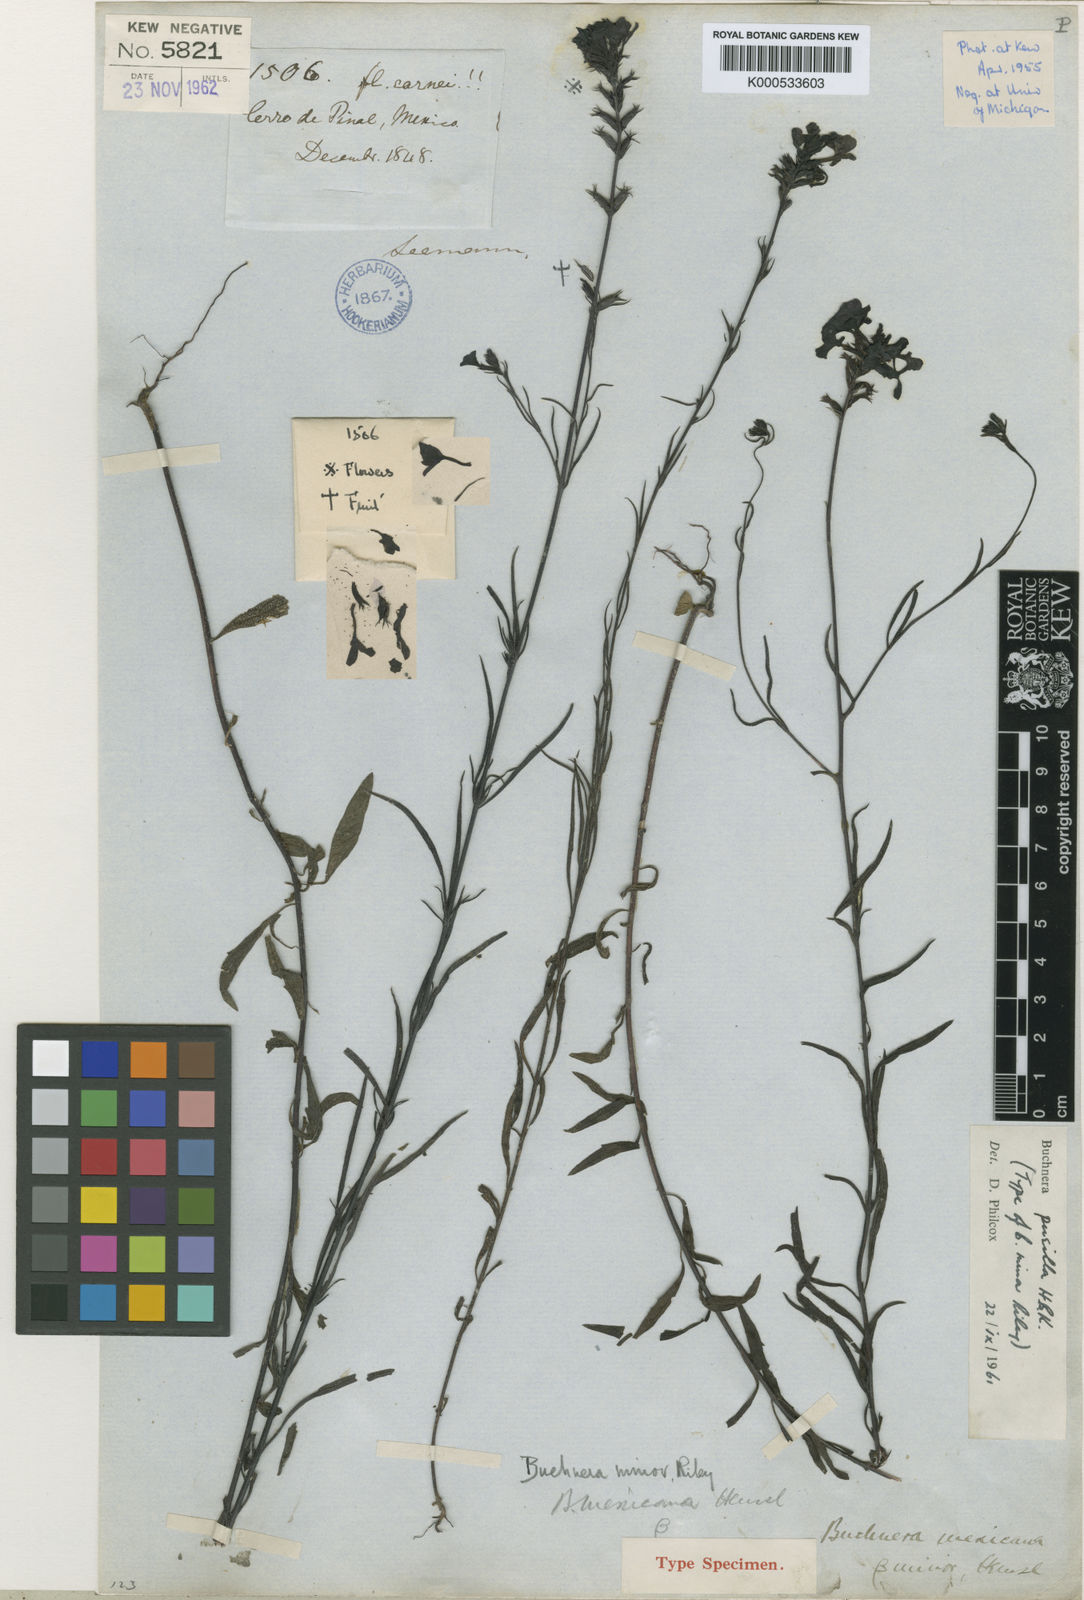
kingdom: Plantae
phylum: Tracheophyta
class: Magnoliopsida
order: Lamiales
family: Orobanchaceae
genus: Buchnera
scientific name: Buchnera pusilla
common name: Pygmy bluehearts
